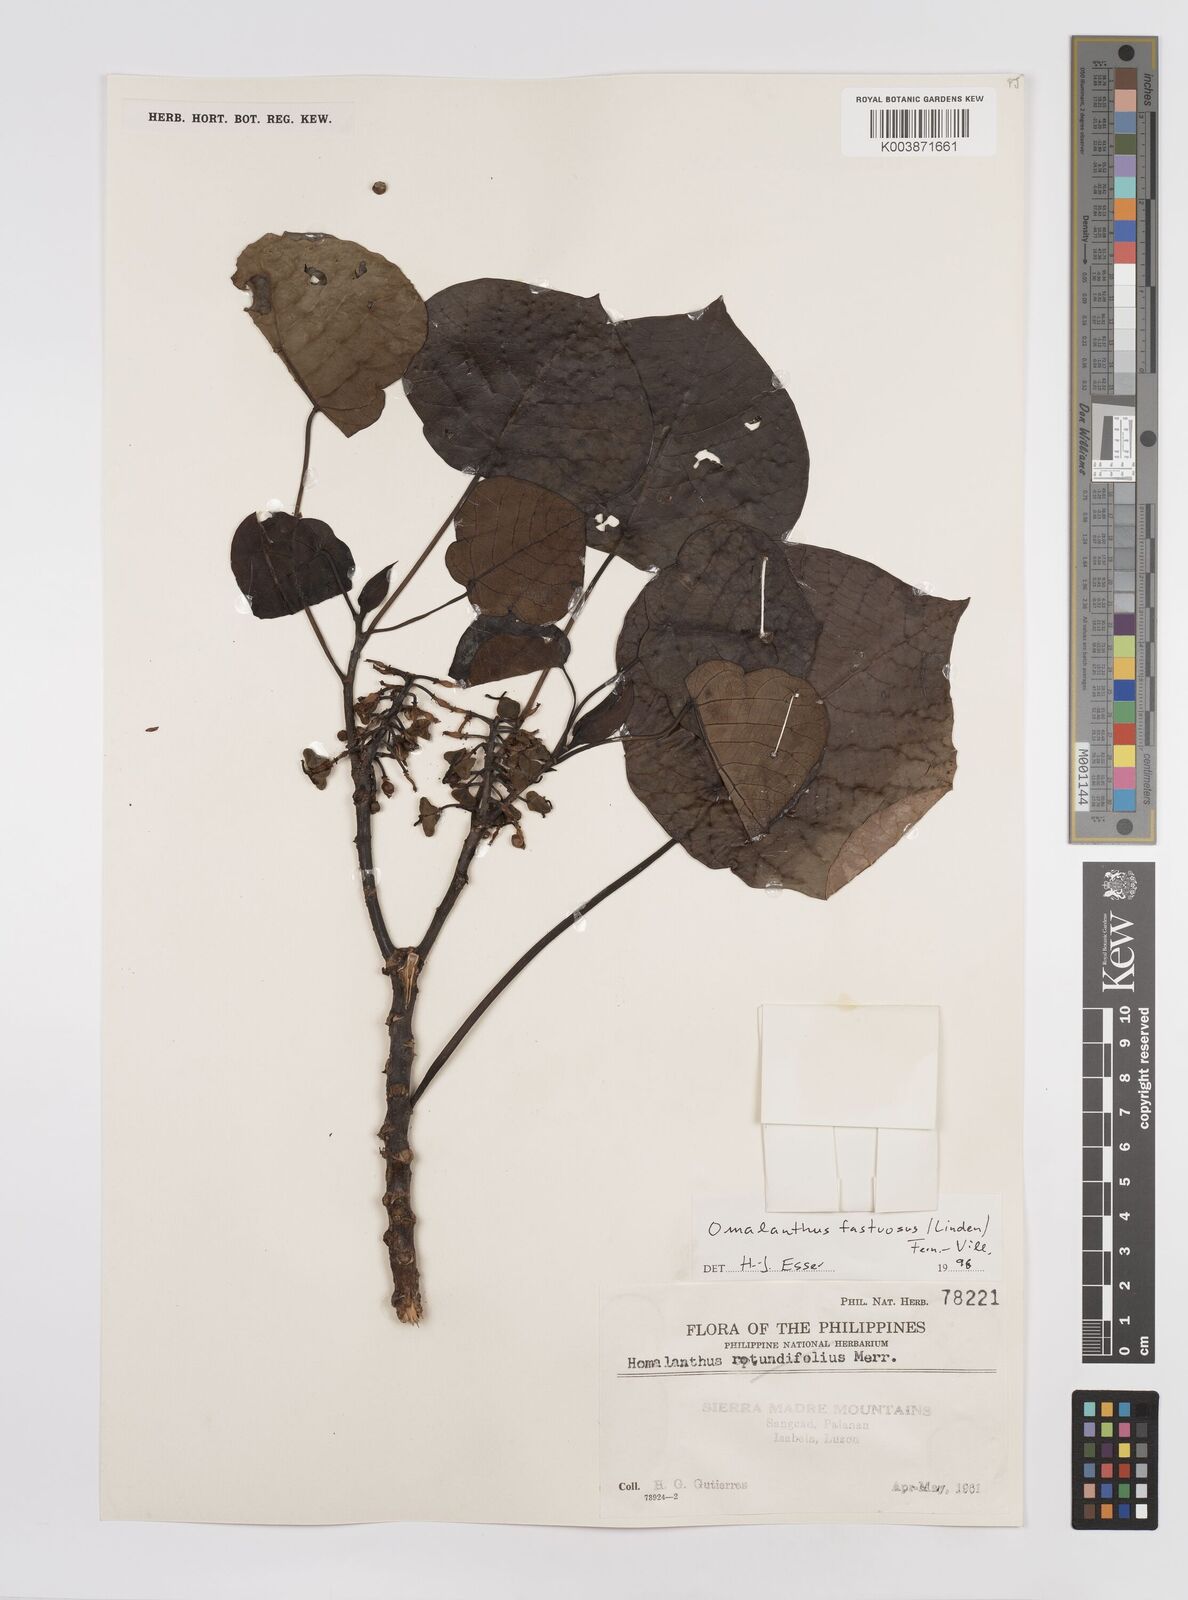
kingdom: Plantae
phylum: Tracheophyta
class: Magnoliopsida
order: Malpighiales
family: Euphorbiaceae
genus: Homalanthus
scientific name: Homalanthus fastuosus
